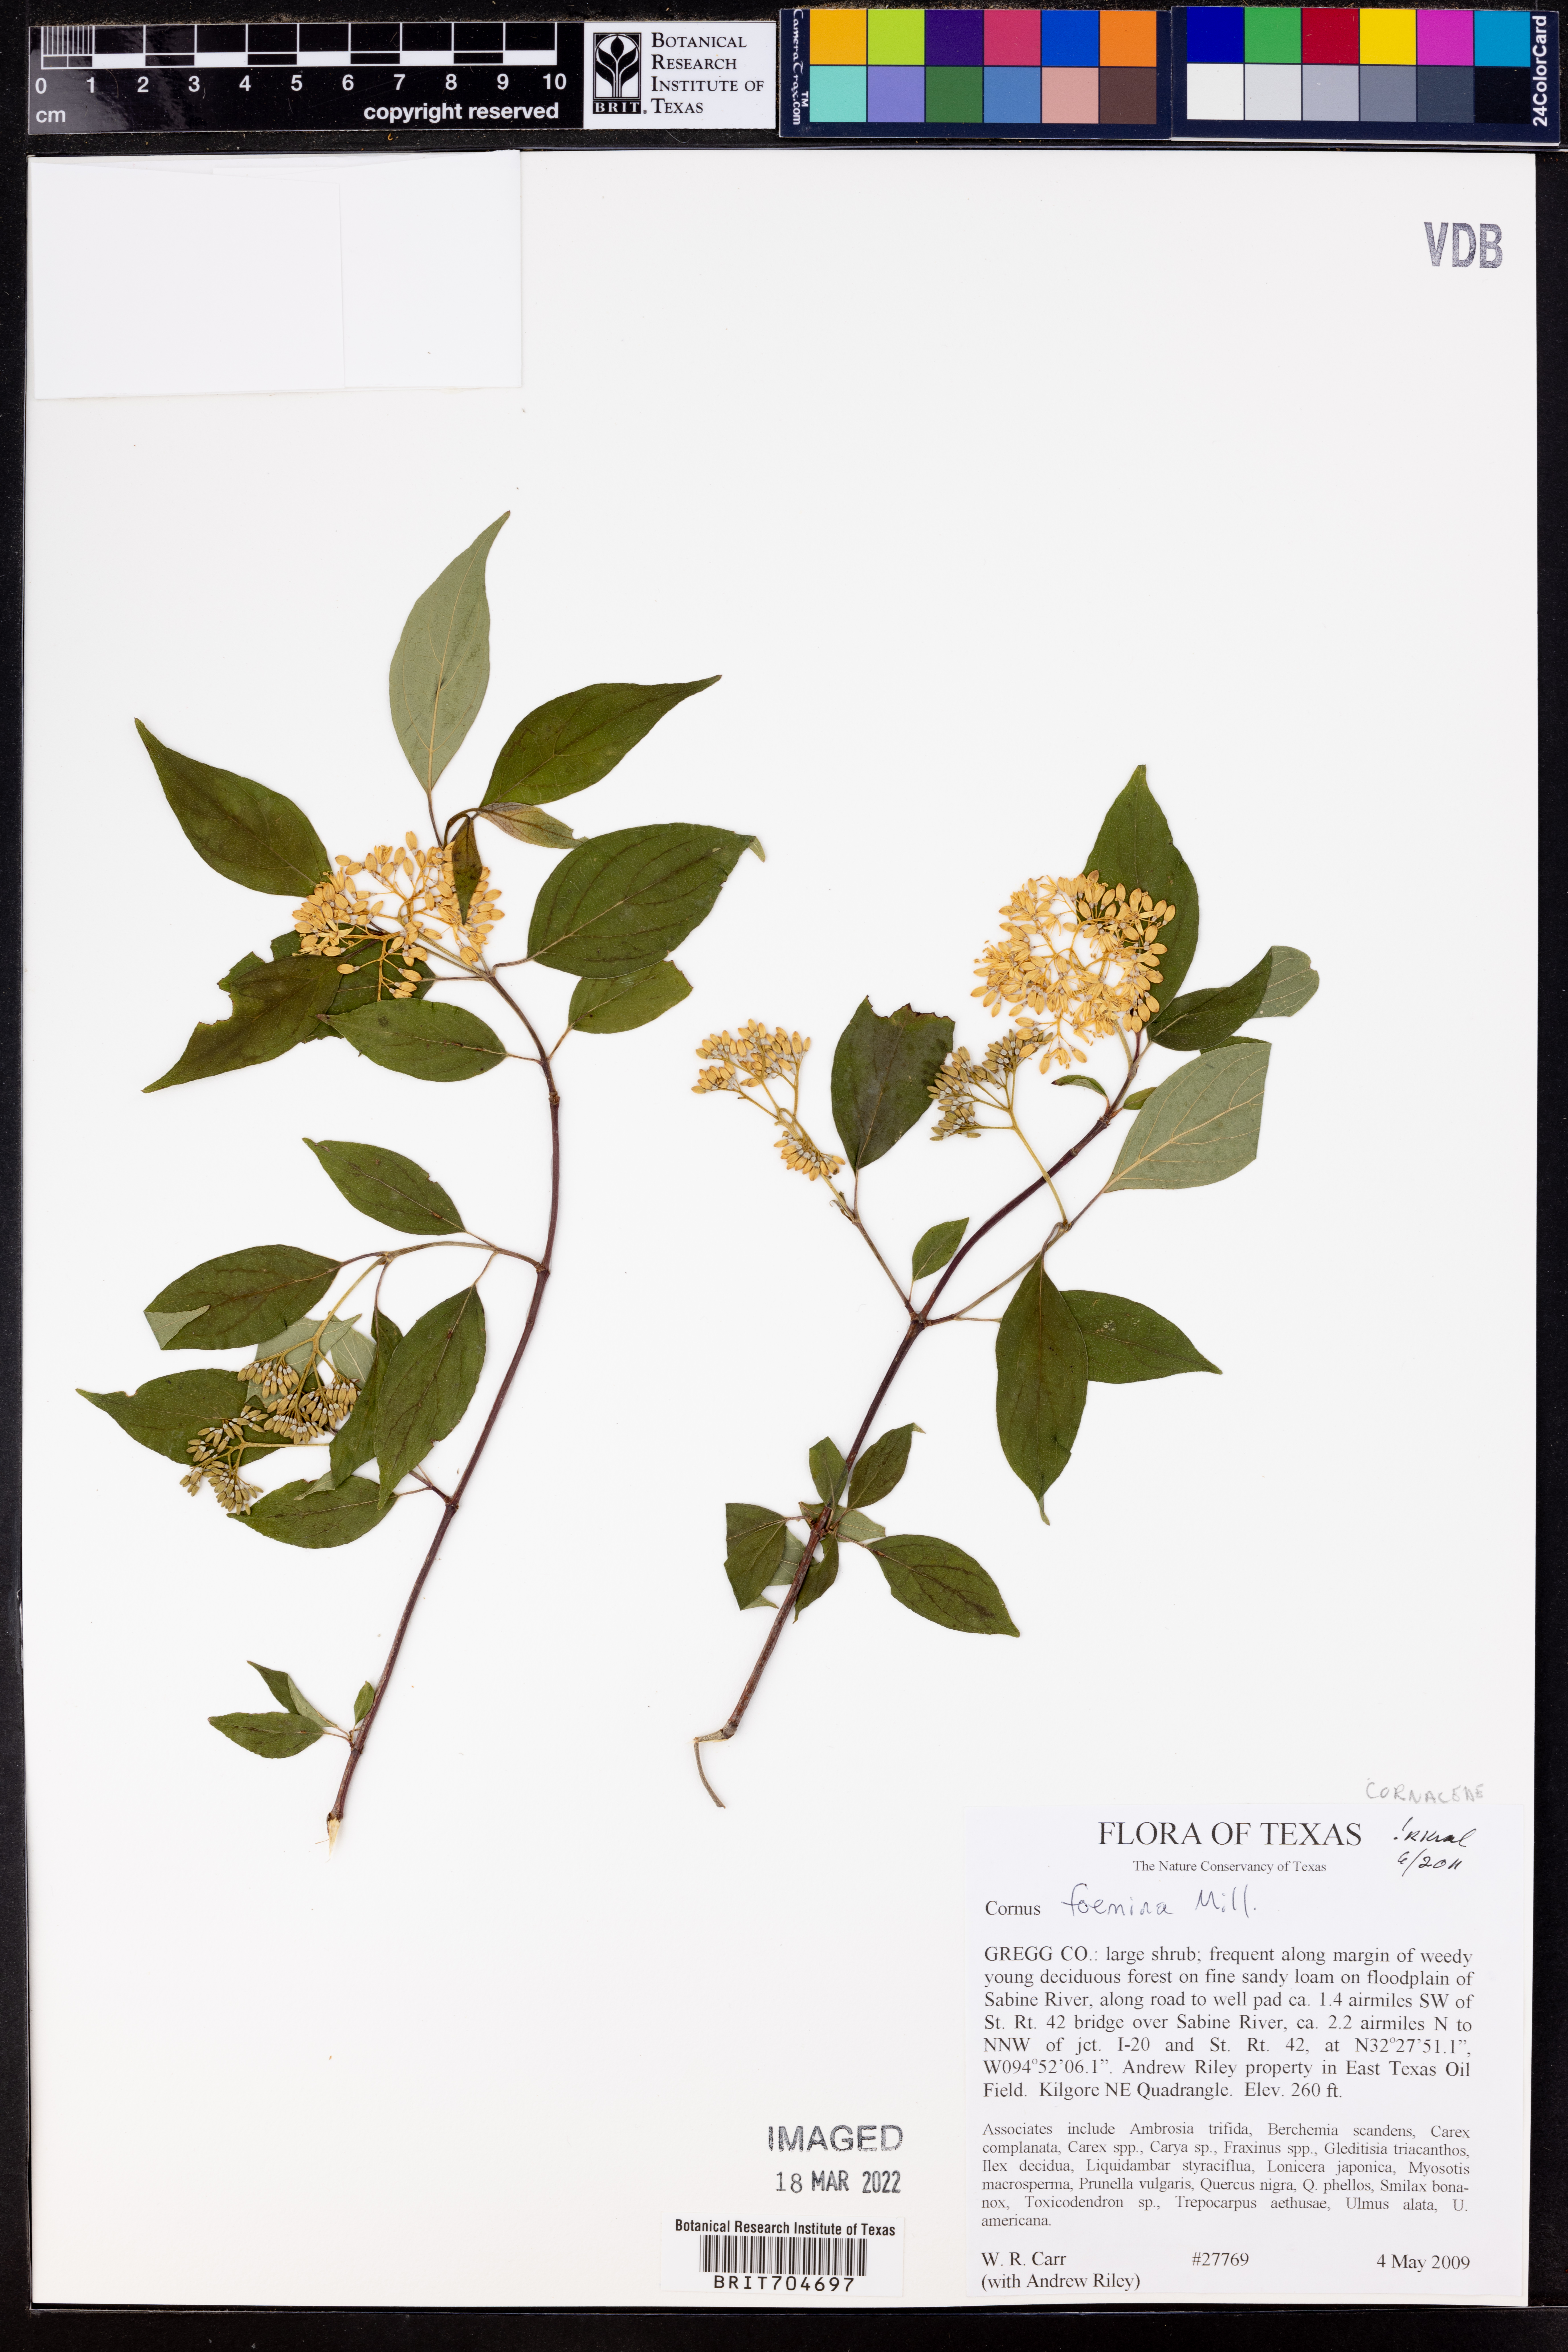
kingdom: Plantae
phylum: Tracheophyta
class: Magnoliopsida
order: Cornales
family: Cornaceae
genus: Cornus
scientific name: Cornus foemina
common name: Swamp dogwood
